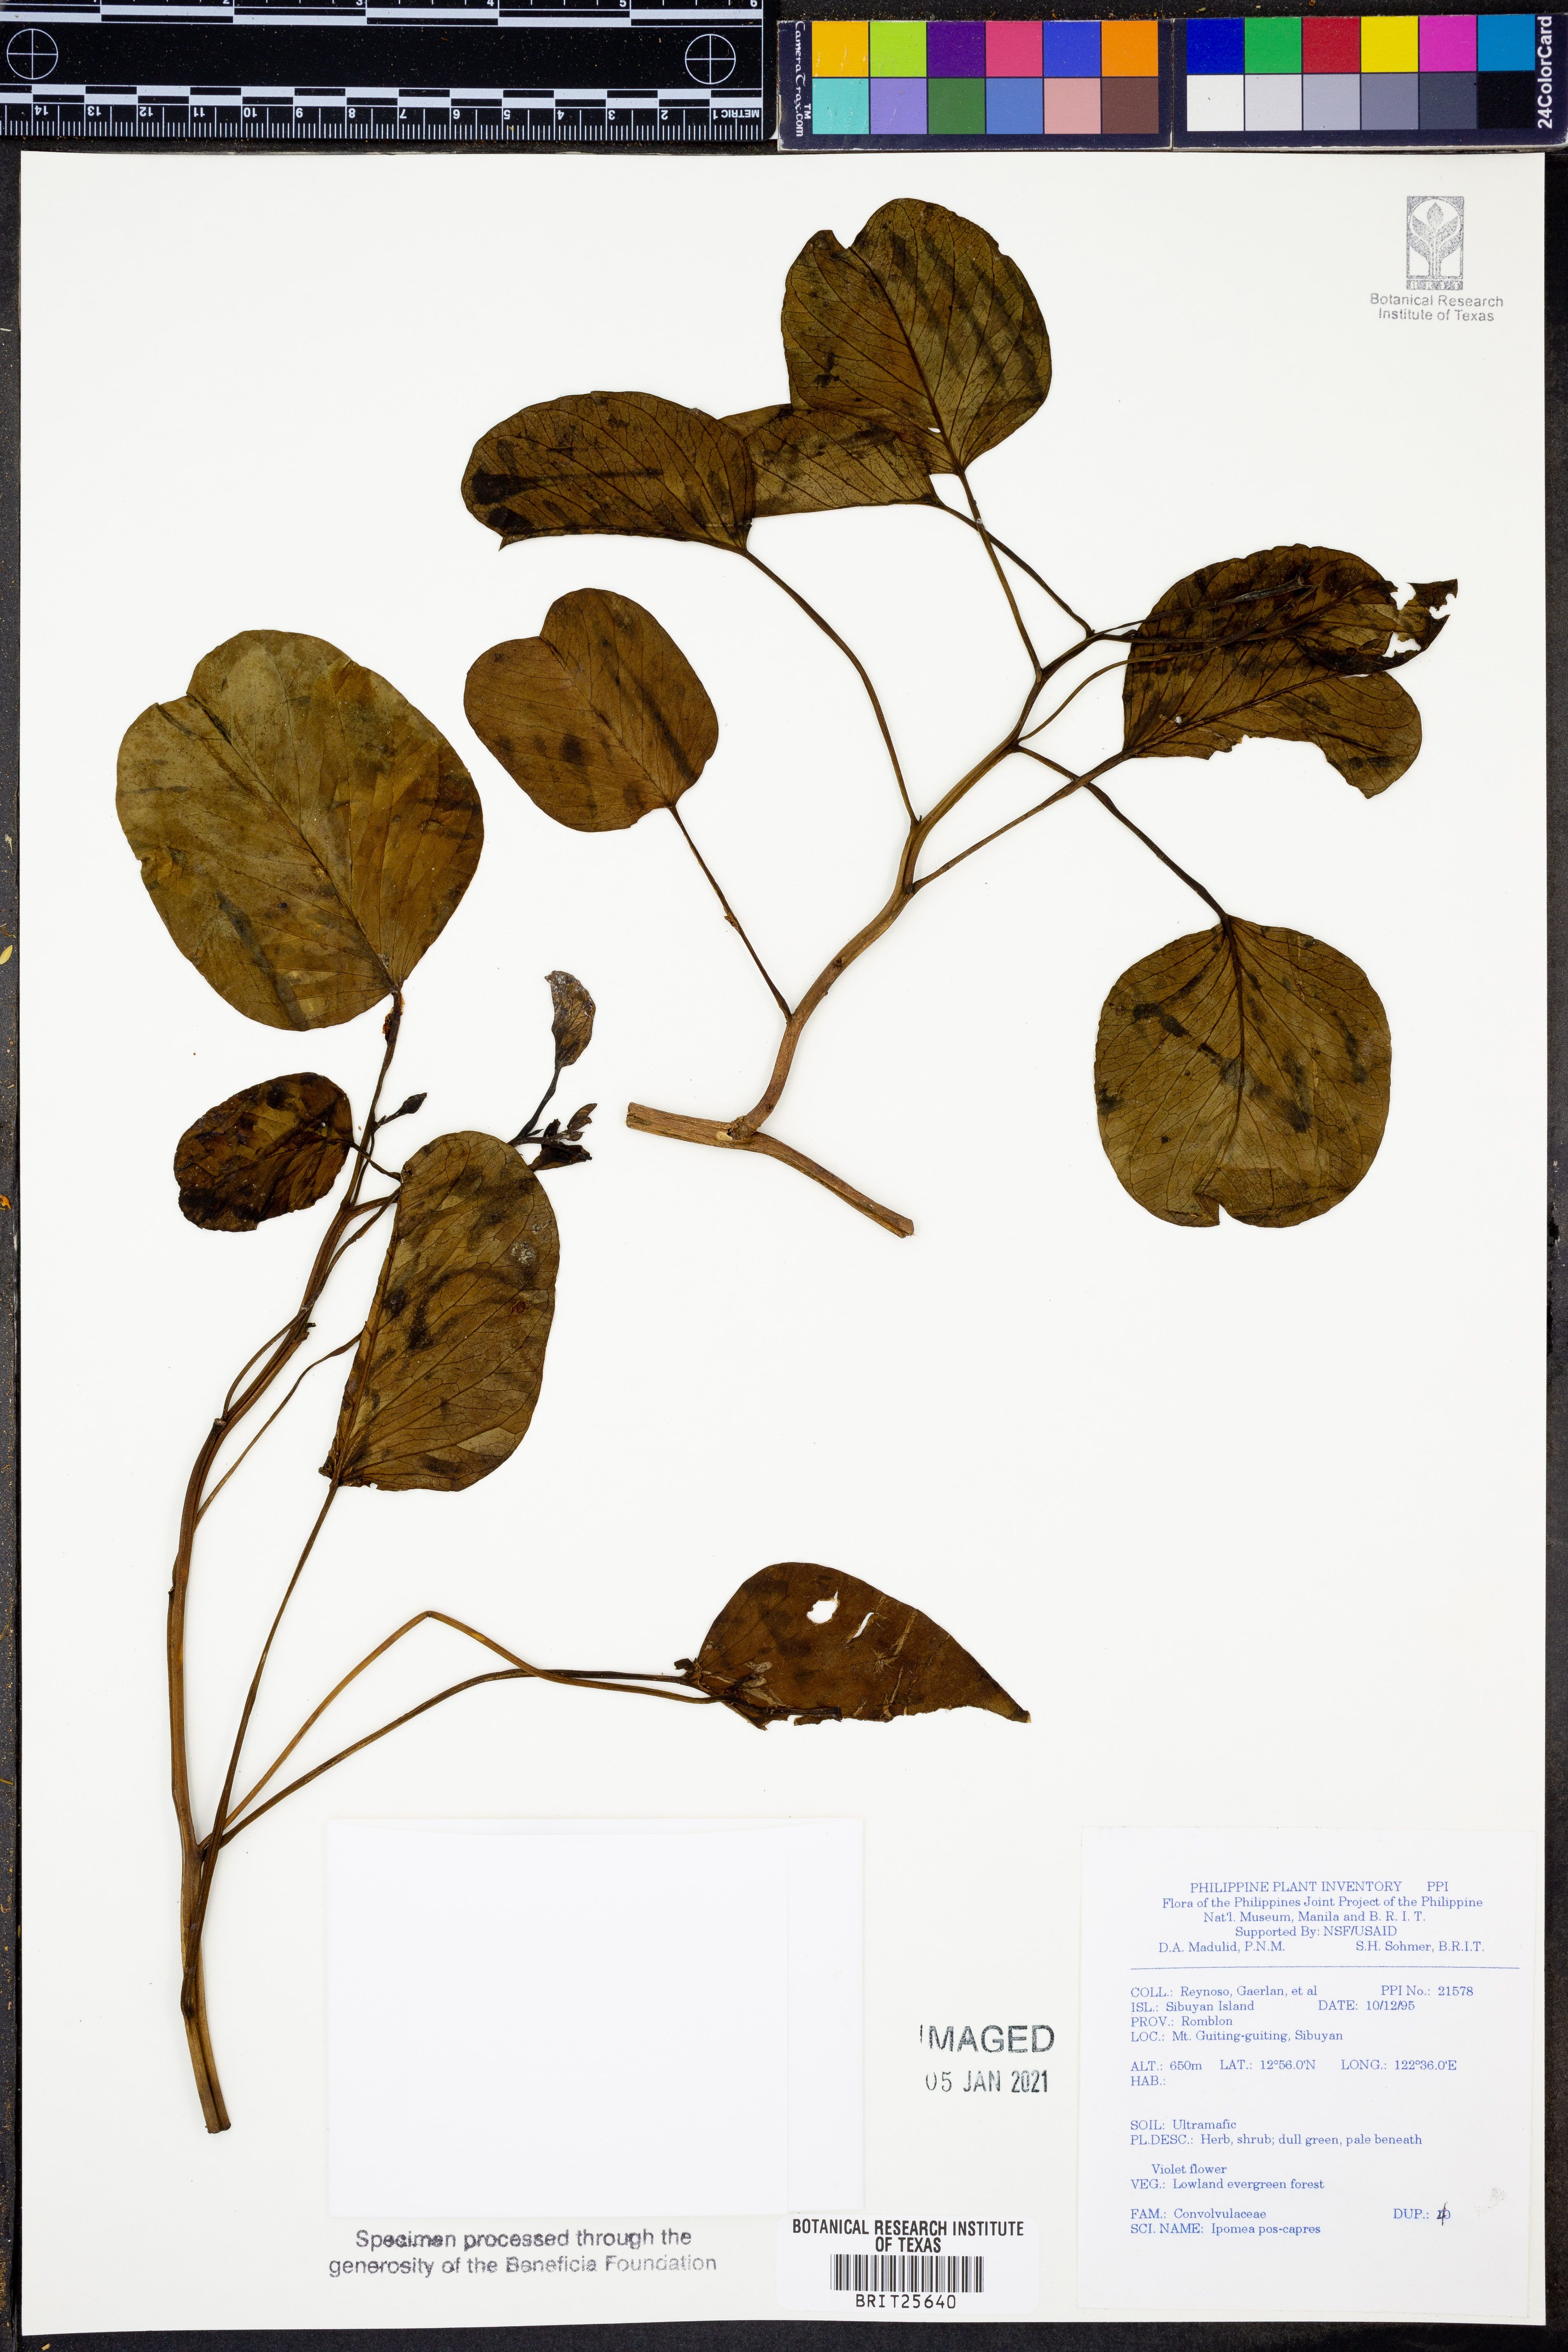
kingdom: Plantae
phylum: Tracheophyta
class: Magnoliopsida
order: Solanales
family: Convolvulaceae
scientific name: Convolvulaceae
